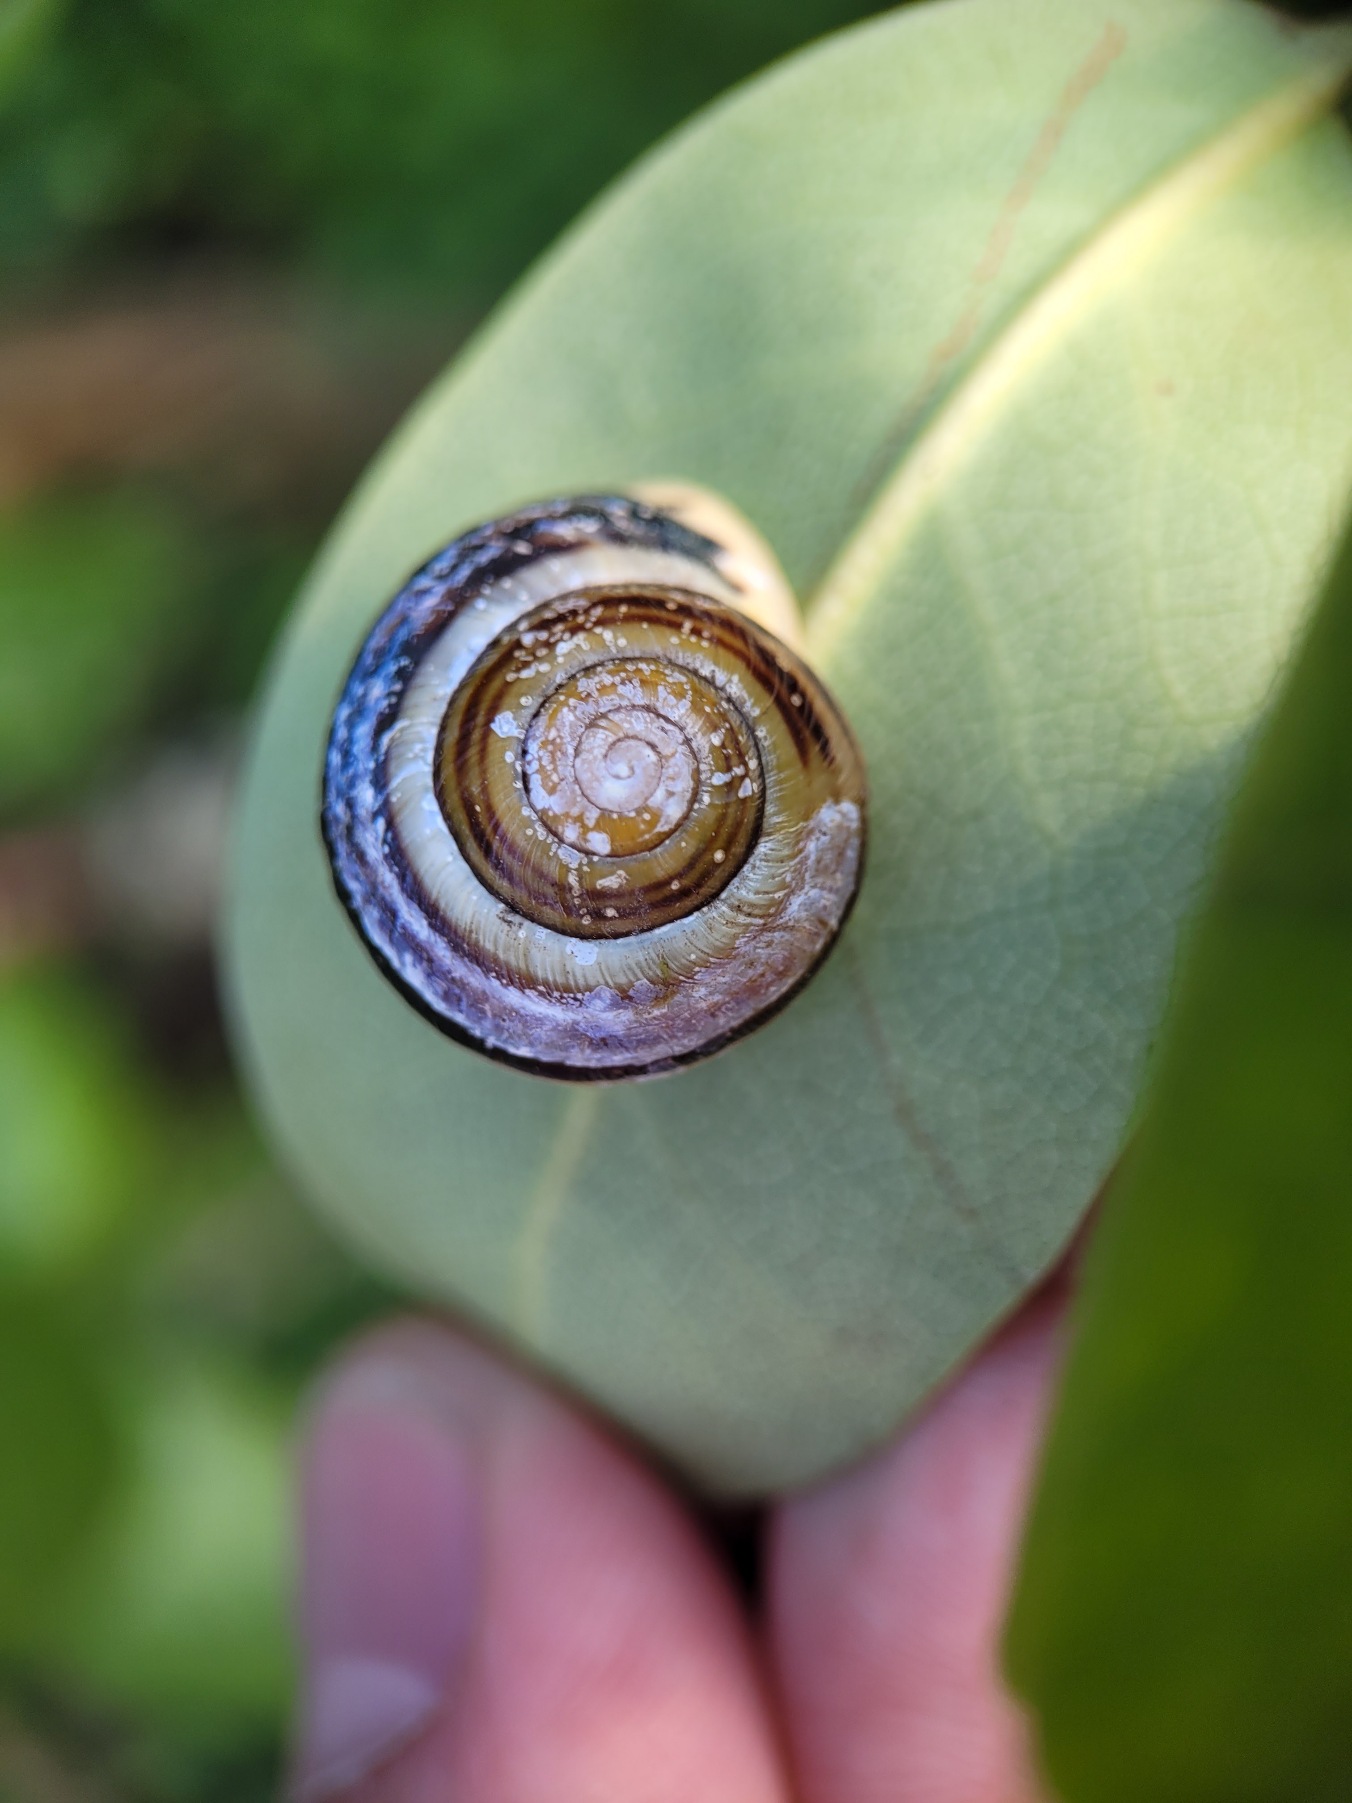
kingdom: Animalia
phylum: Mollusca
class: Gastropoda
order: Stylommatophora
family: Helicidae
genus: Cepaea
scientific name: Cepaea hortensis
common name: Havesnegl
